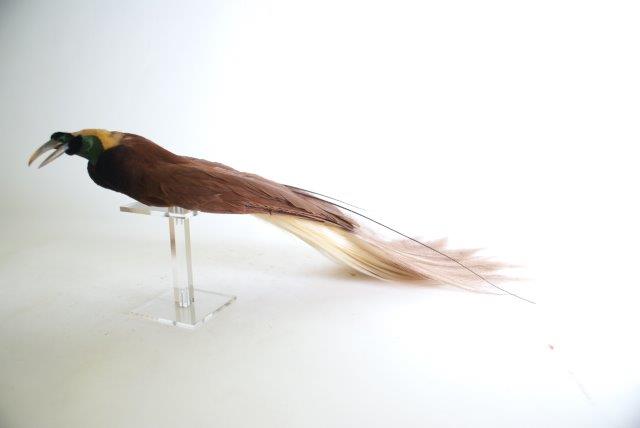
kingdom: Animalia
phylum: Chordata
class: Aves
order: Passeriformes
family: Paradisaeidae
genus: Paradisaea
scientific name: Paradisaea apoda
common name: Greater Bird-of-Paradise
